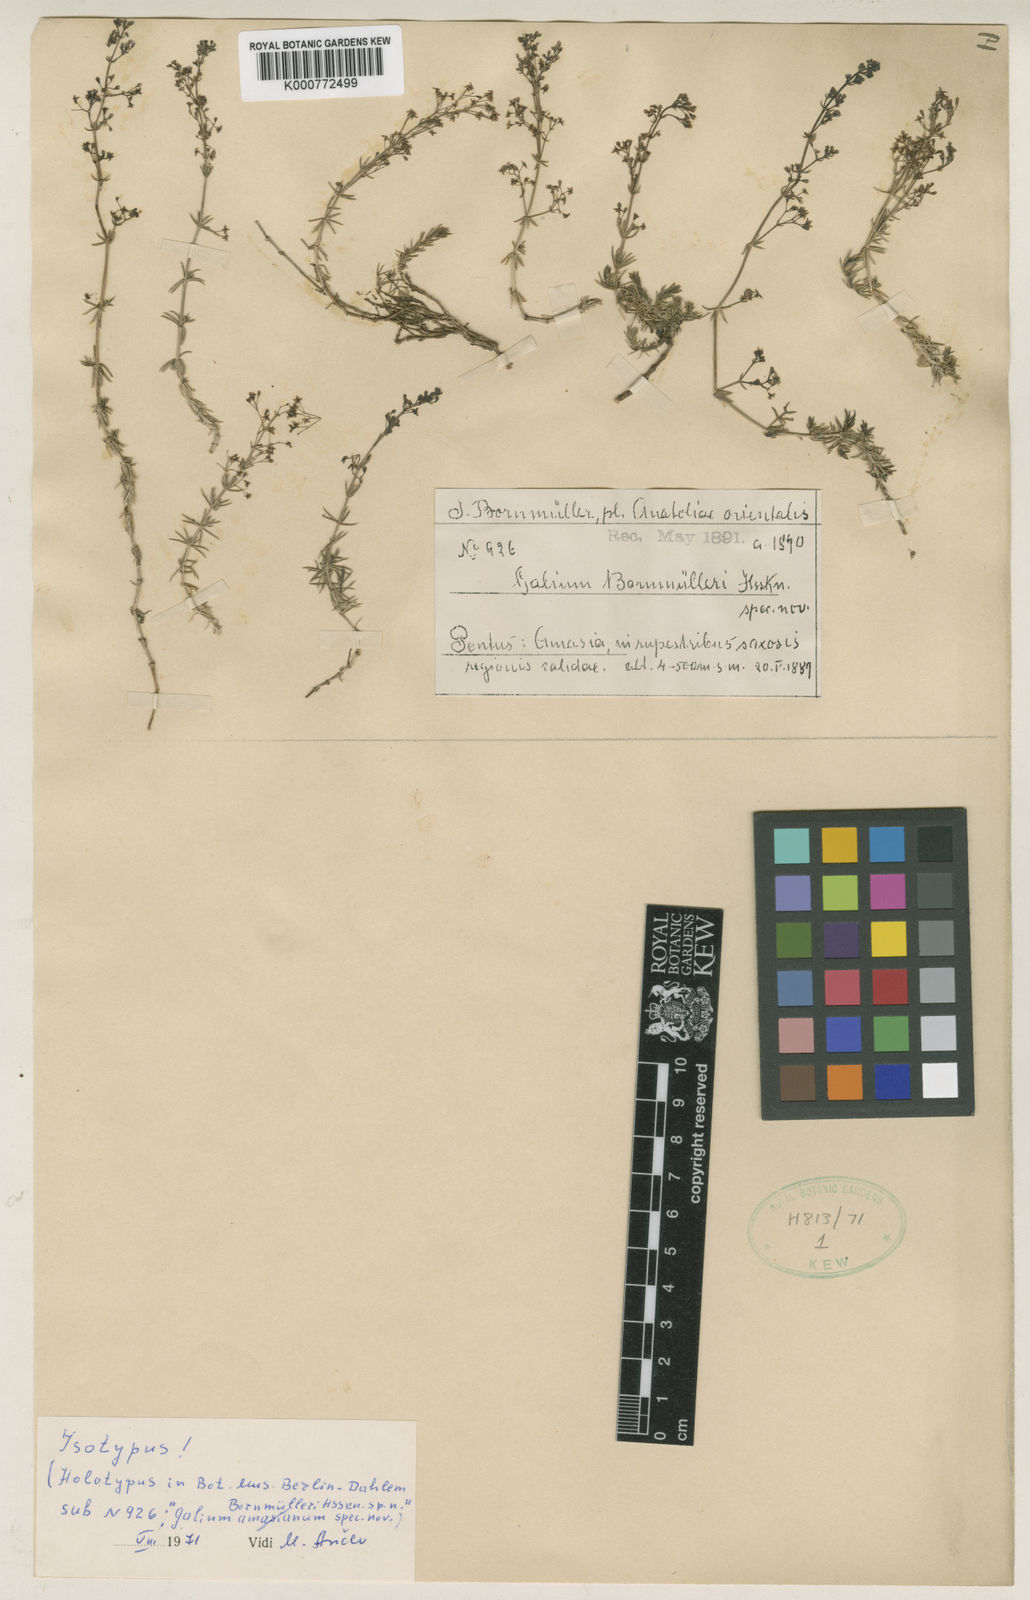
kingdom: Plantae
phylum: Tracheophyta
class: Magnoliopsida
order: Gentianales
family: Rubiaceae
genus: Galium
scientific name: Galium bornmuelleri
